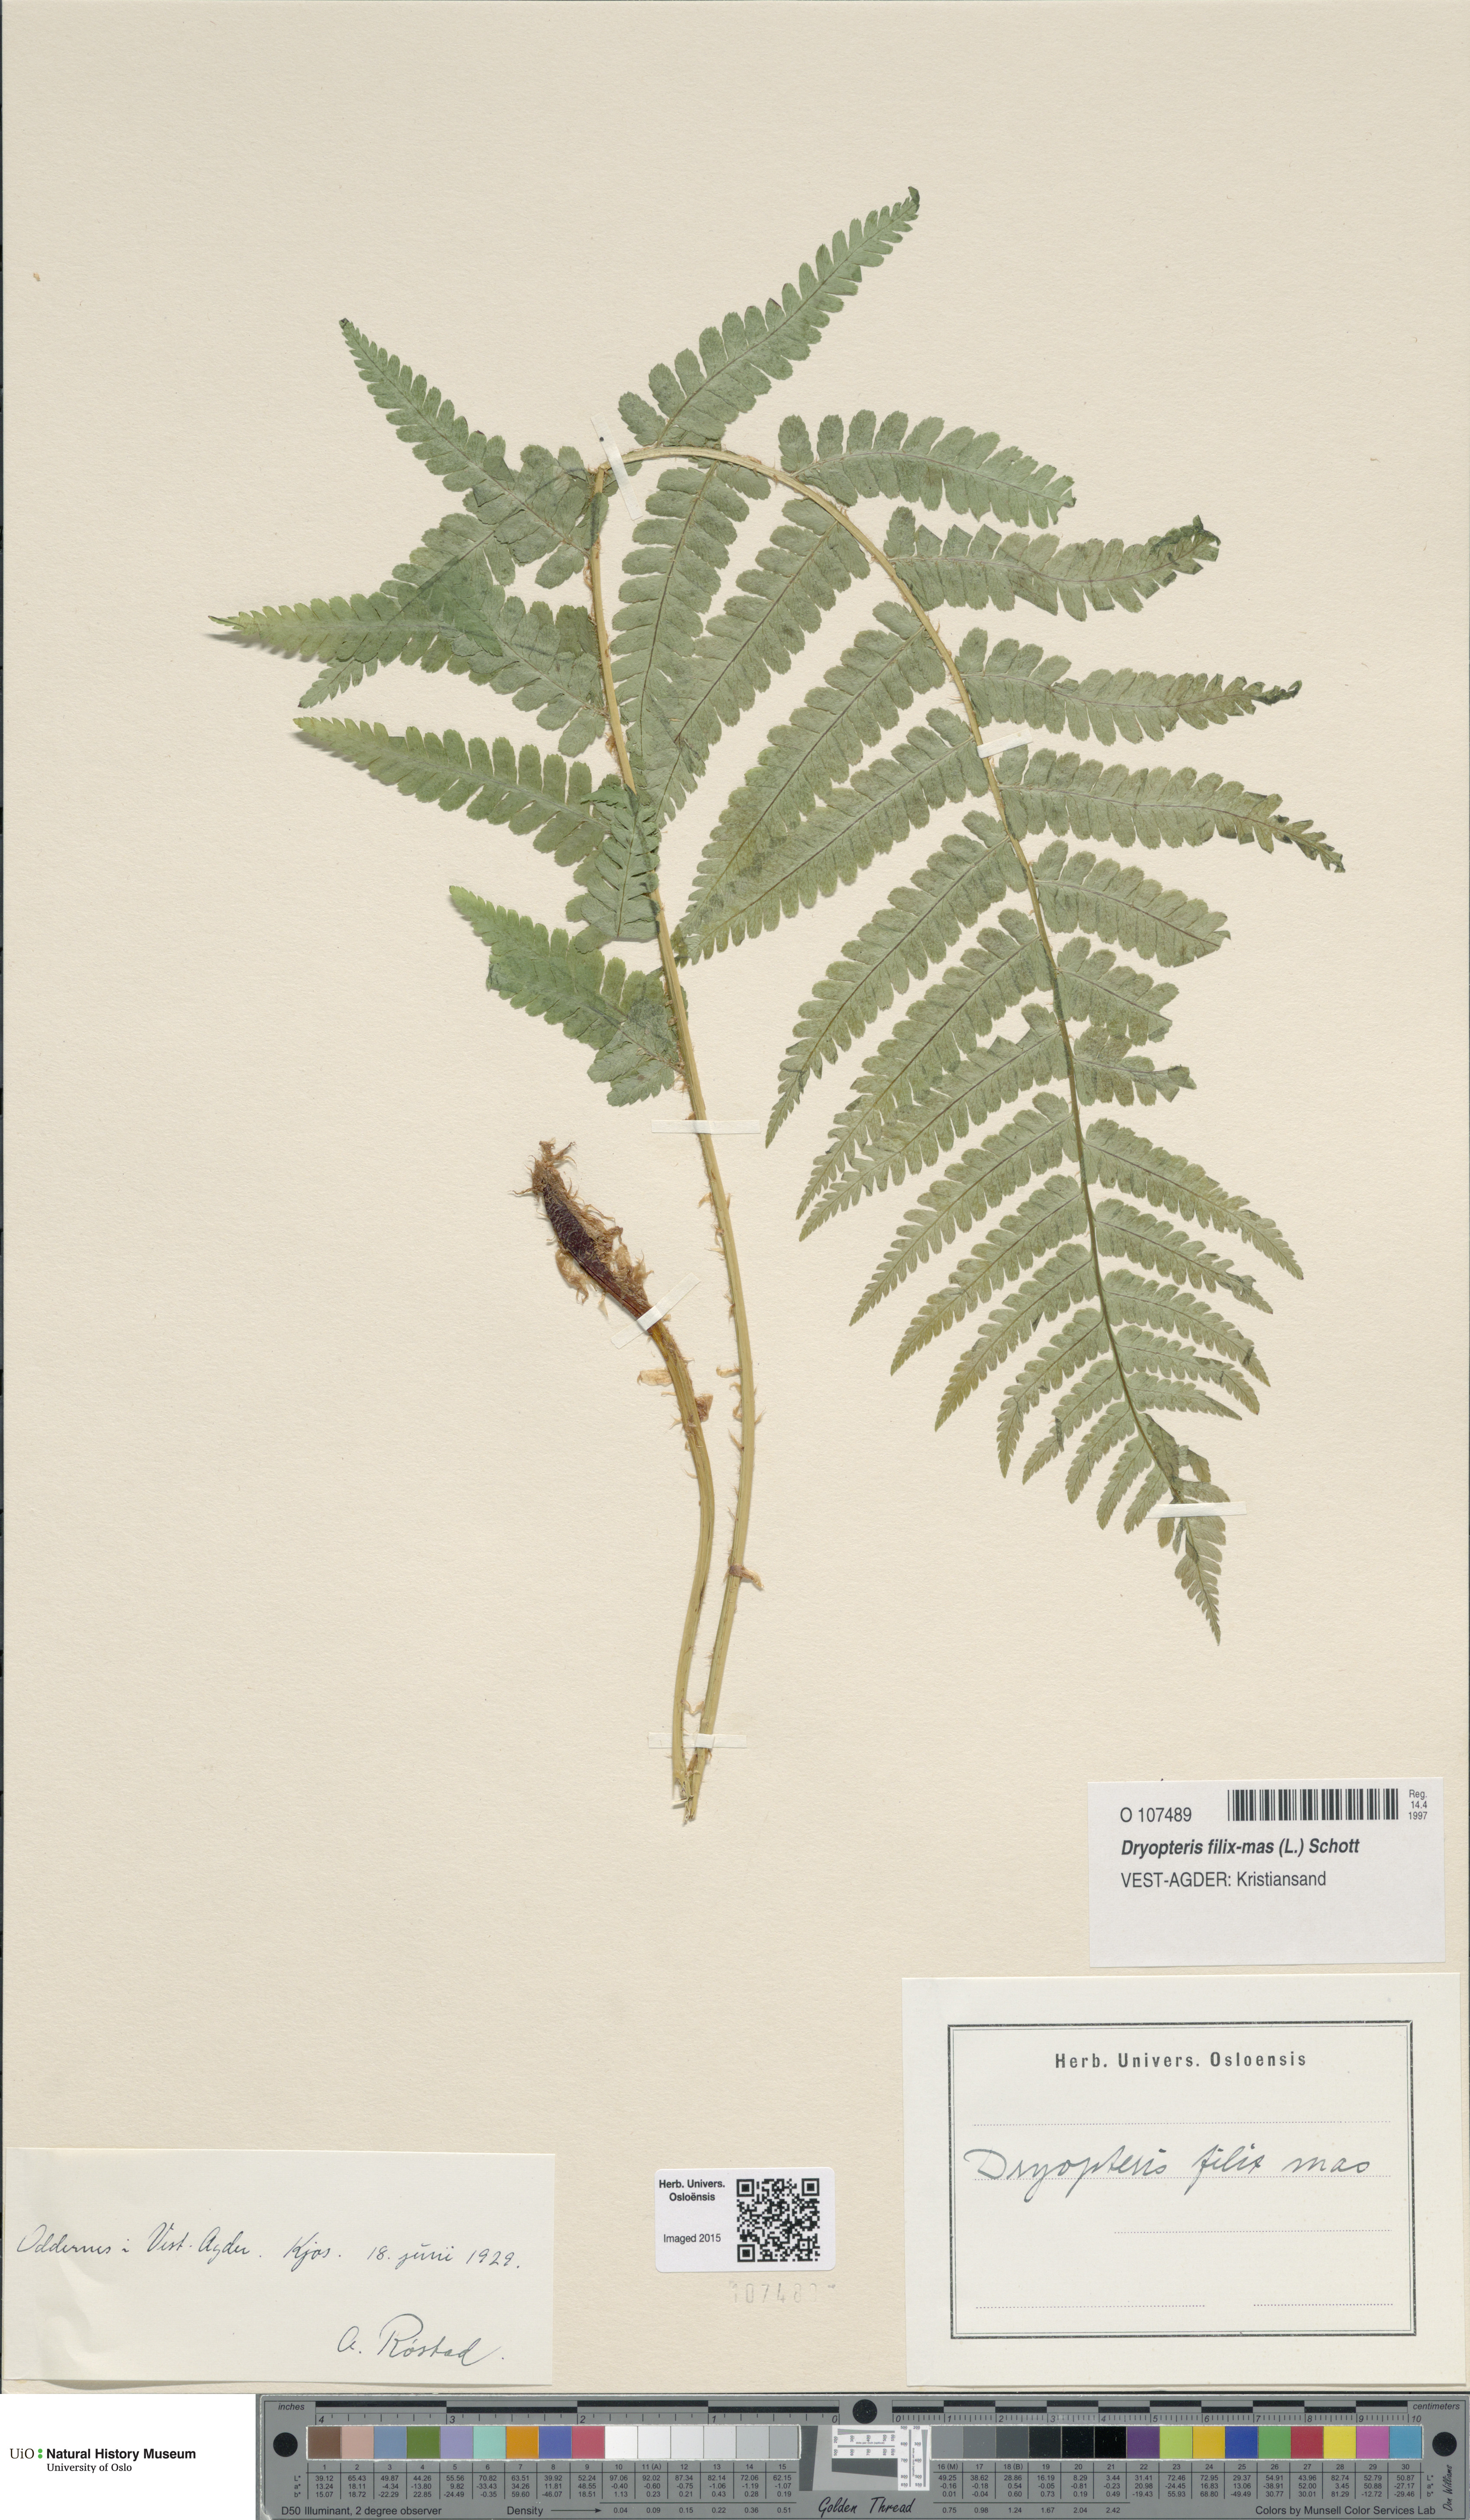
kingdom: Plantae
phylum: Tracheophyta
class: Polypodiopsida
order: Polypodiales
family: Dryopteridaceae
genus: Dryopteris
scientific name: Dryopteris filix-mas
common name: Male fern
